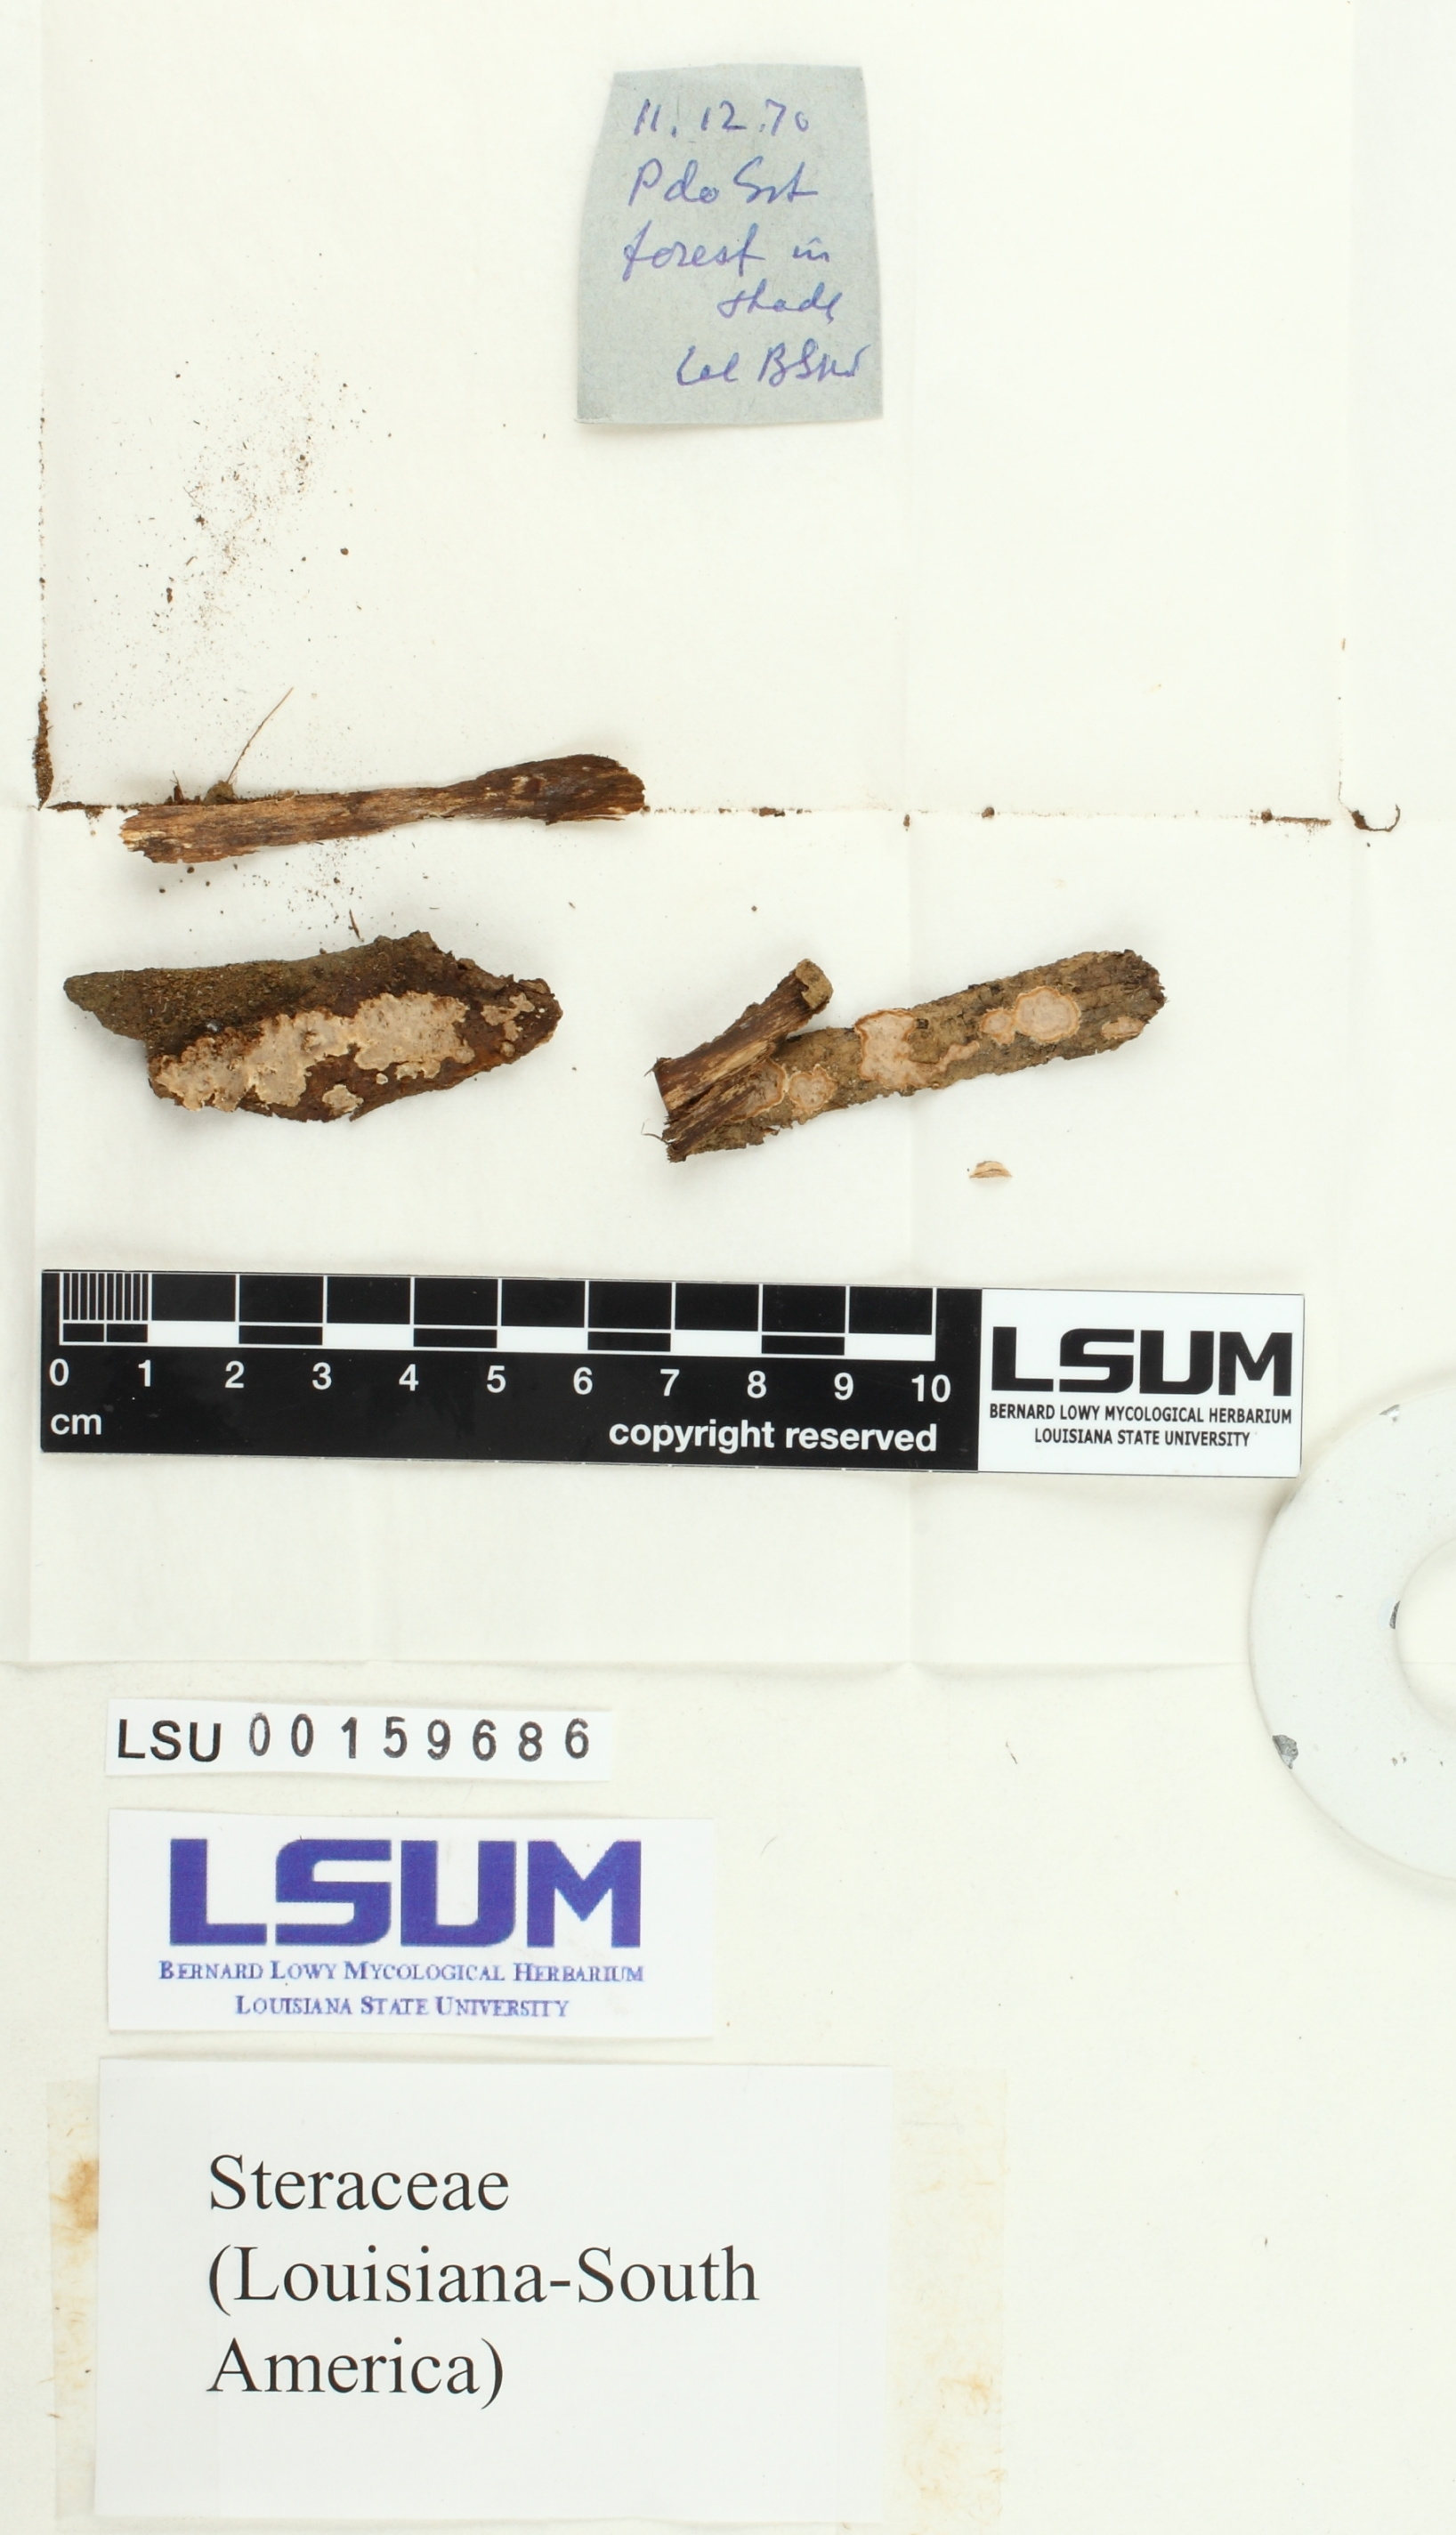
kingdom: Fungi
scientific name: Fungi
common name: Fungi
